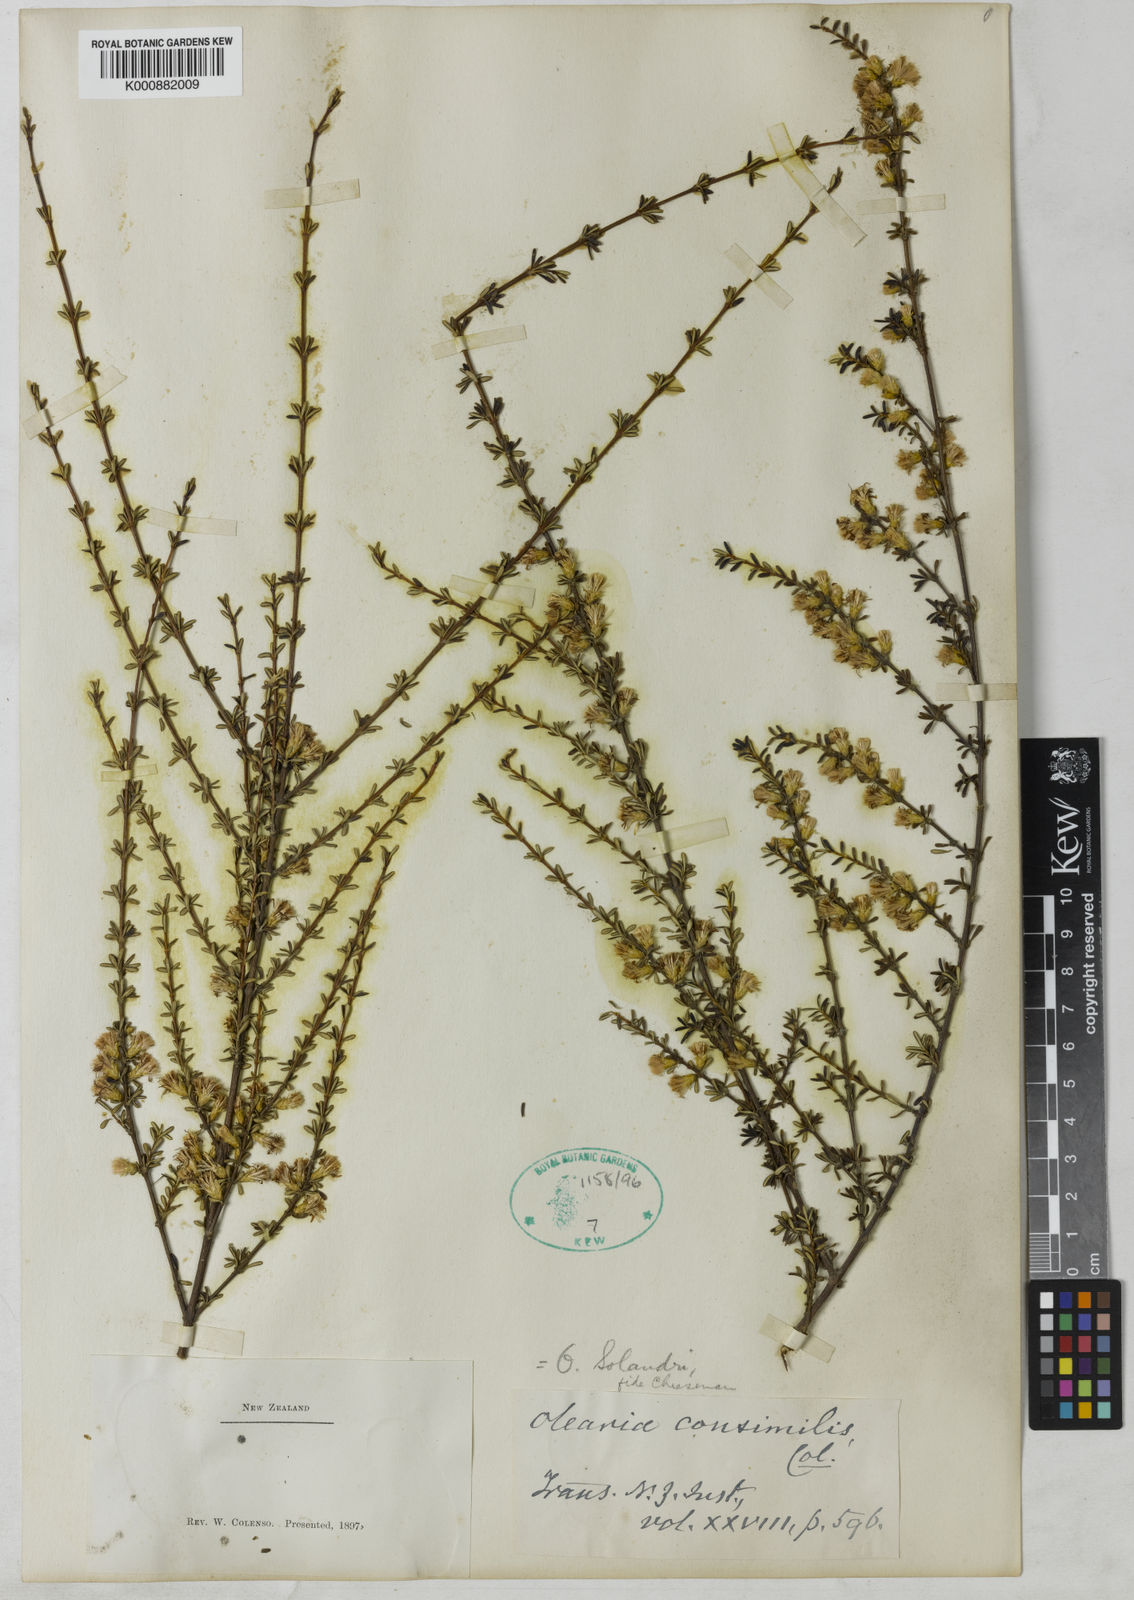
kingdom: Plantae
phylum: Tracheophyta
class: Magnoliopsida
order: Asterales
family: Asteraceae
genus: Olearia
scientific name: Olearia solandri
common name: Coastal daisybush
